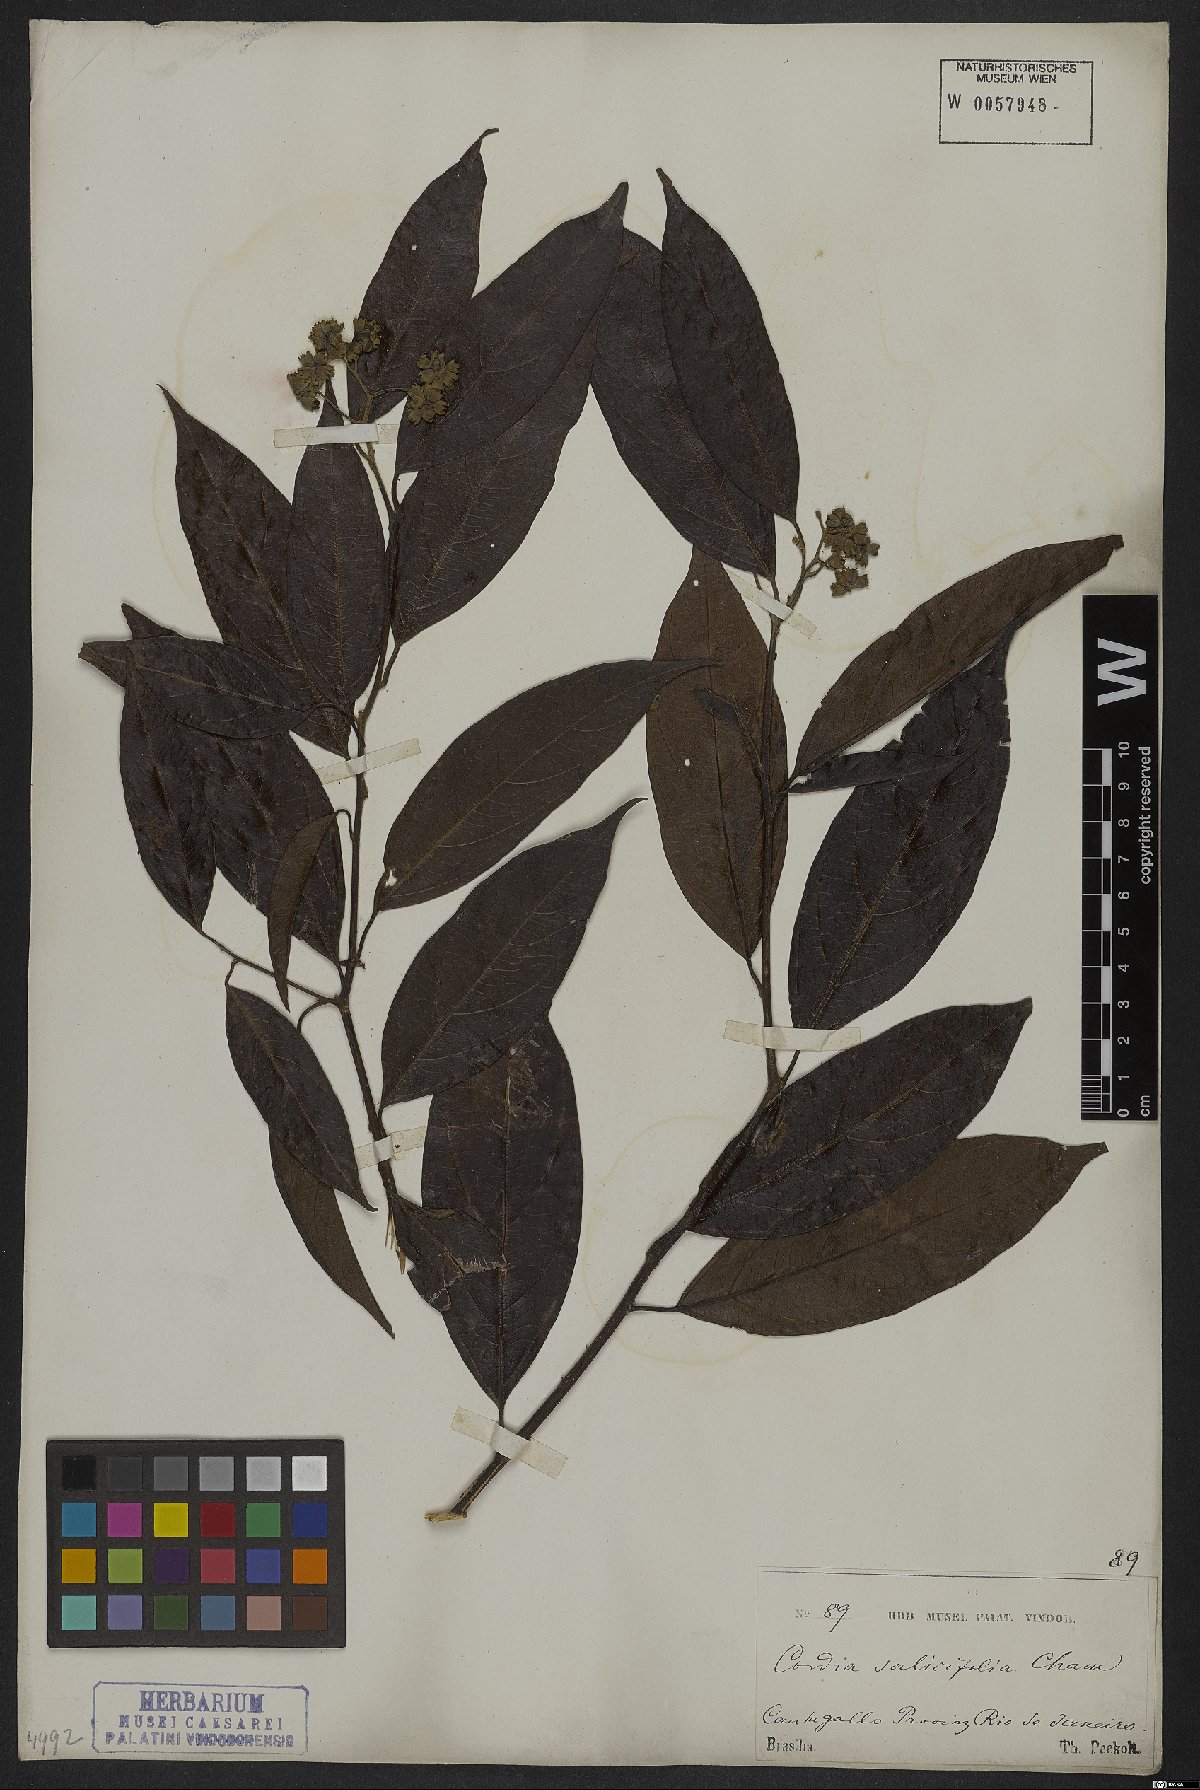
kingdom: Plantae
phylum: Tracheophyta
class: Magnoliopsida
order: Boraginales
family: Cordiaceae
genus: Cordia
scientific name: Cordia ecalyculata
